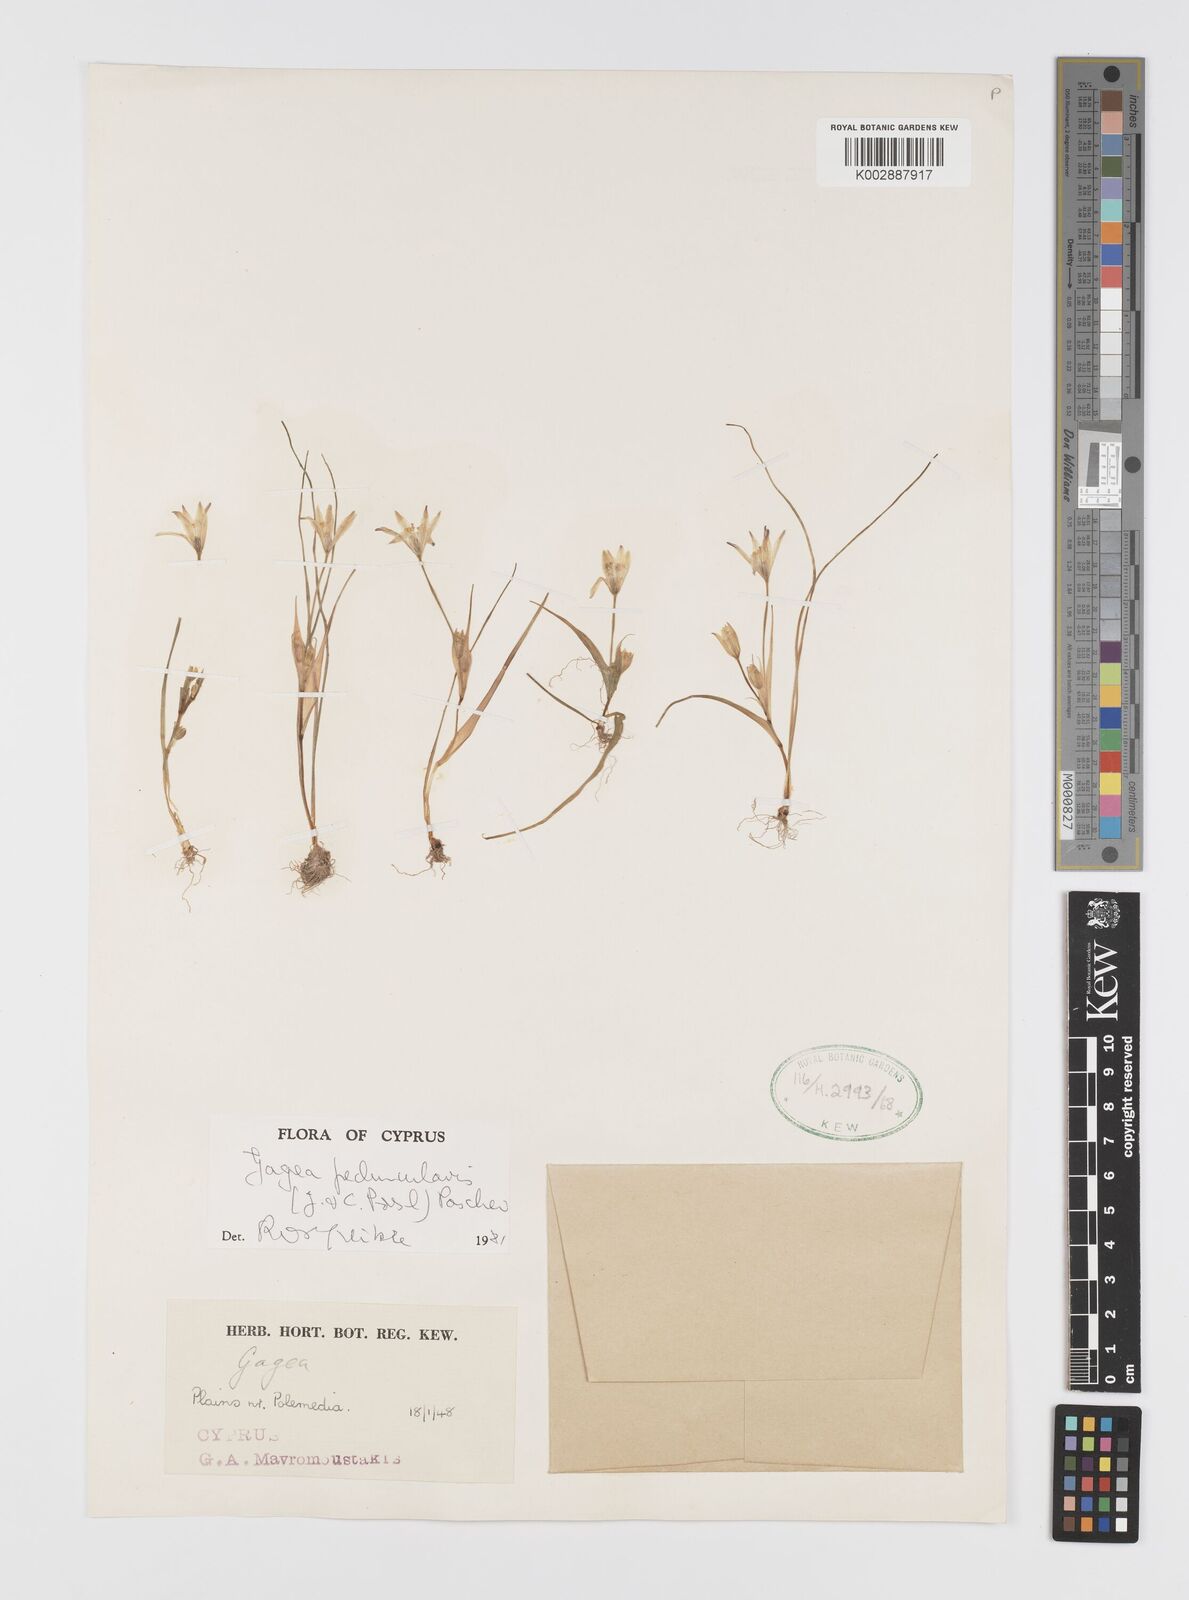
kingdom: Plantae
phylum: Tracheophyta
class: Liliopsida
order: Liliales
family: Liliaceae
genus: Gagea
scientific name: Gagea peduncularis
